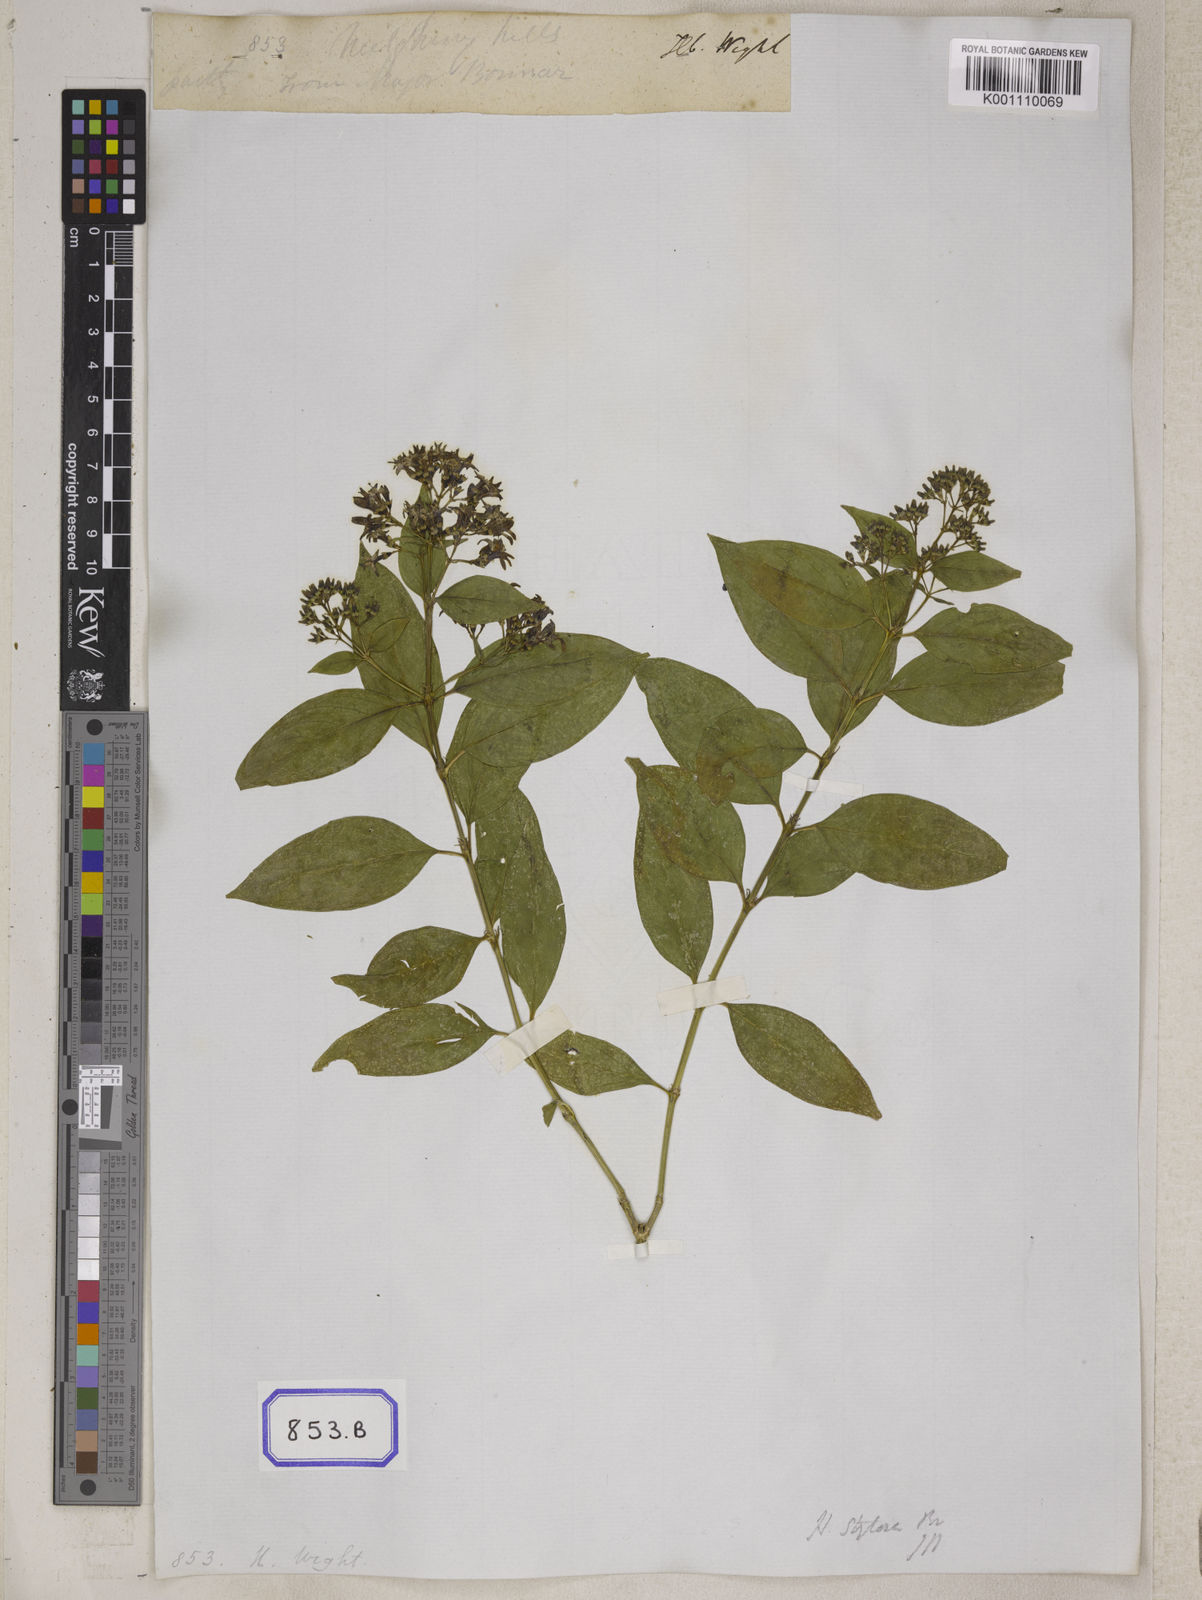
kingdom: Plantae
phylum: Tracheophyta
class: Magnoliopsida
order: Gentianales
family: Rubiaceae
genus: Hedyotis
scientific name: Hedyotis
